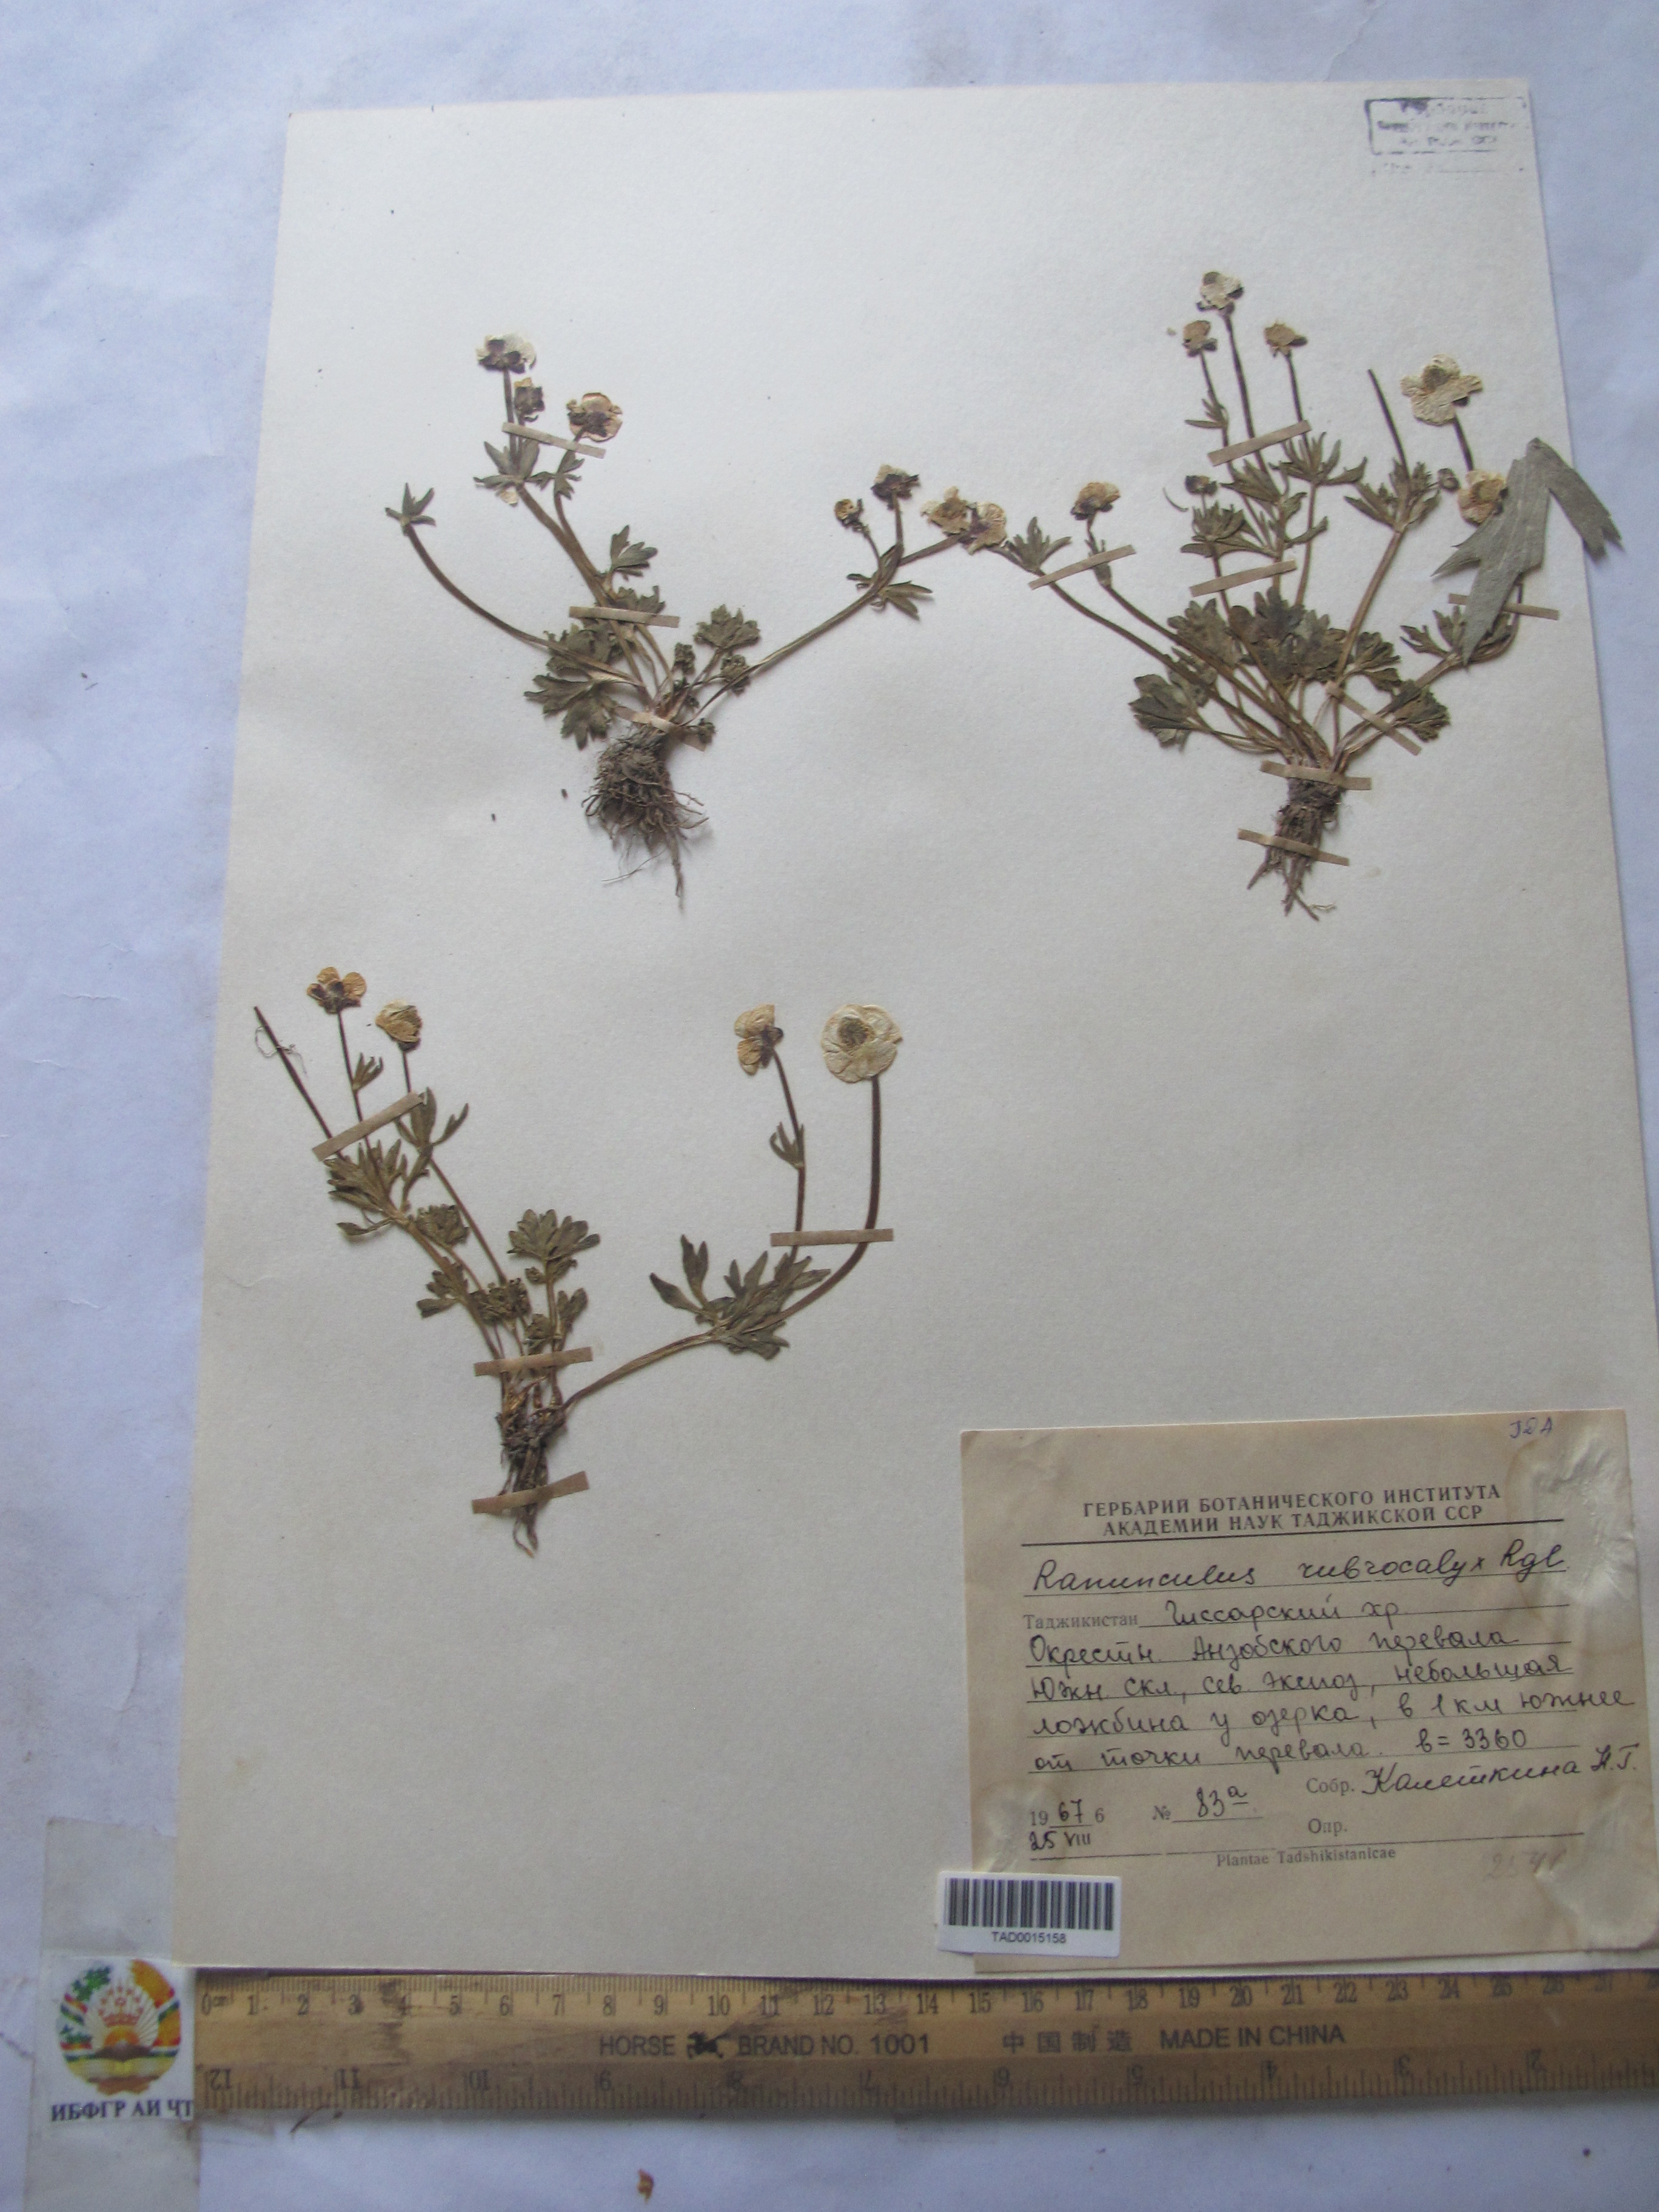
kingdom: Plantae
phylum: Tracheophyta
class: Magnoliopsida
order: Ranunculales
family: Ranunculaceae
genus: Ranunculus
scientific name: Ranunculus rubrocalyx
